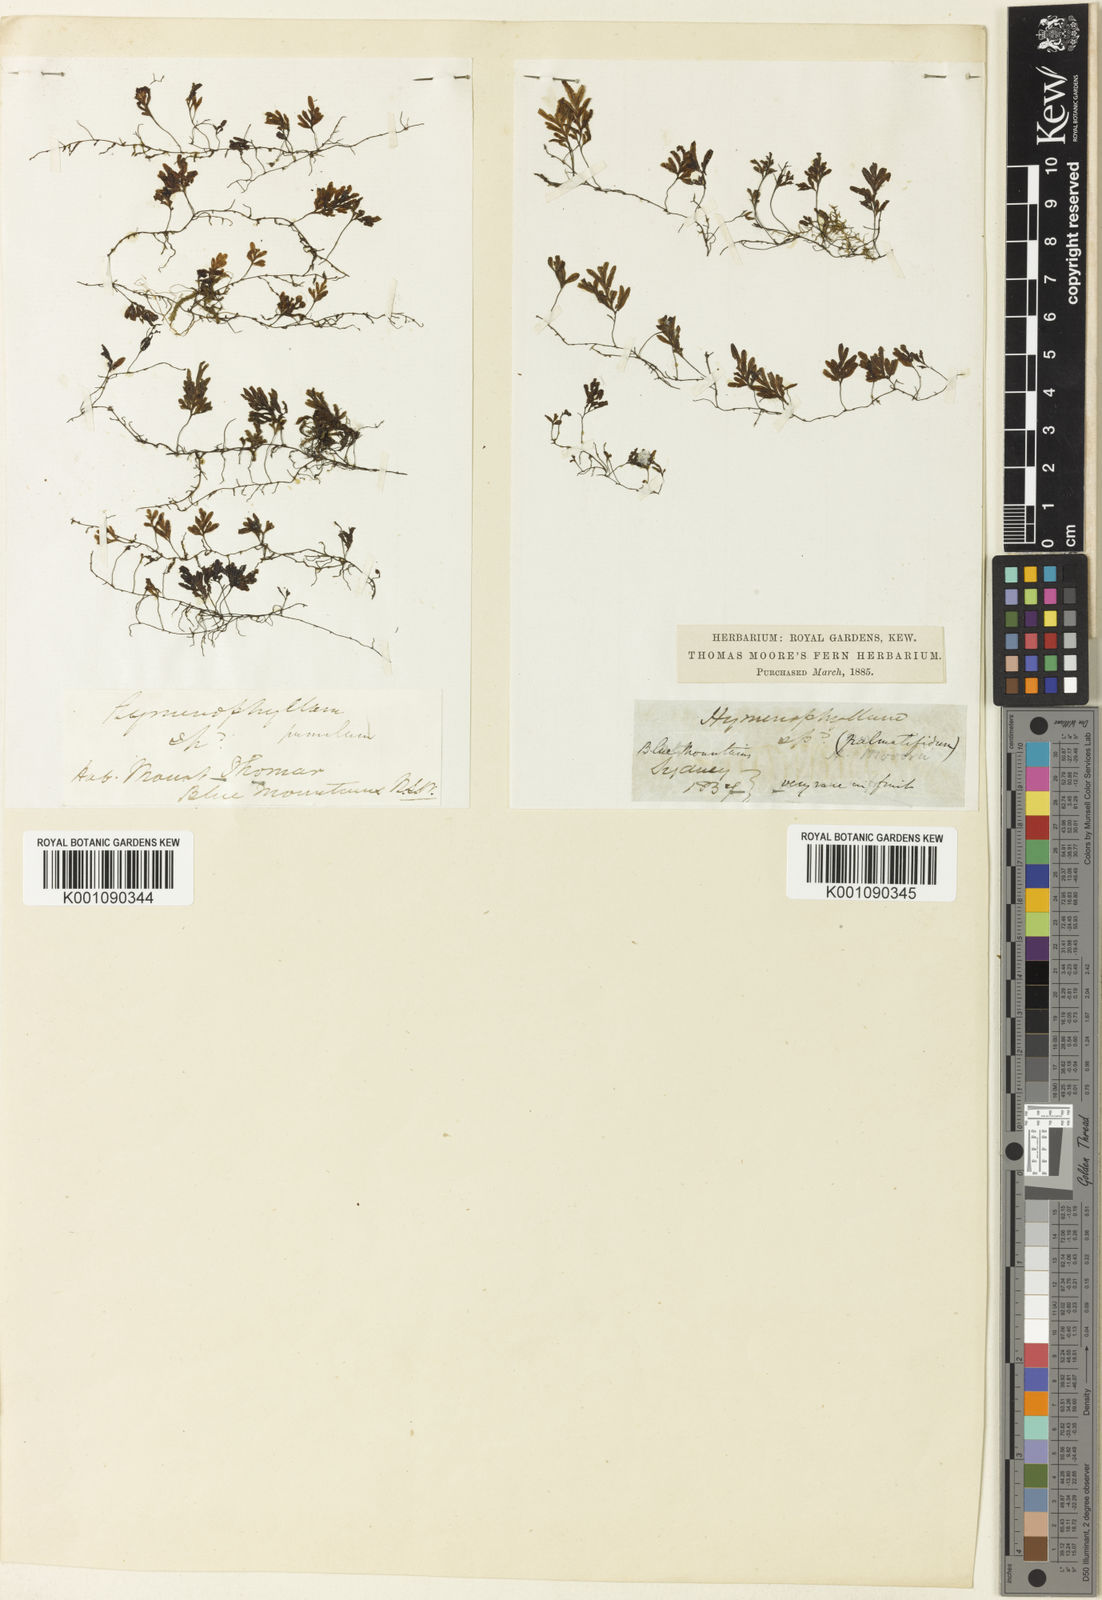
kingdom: Plantae
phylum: Tracheophyta
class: Polypodiopsida
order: Hymenophyllales
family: Hymenophyllaceae
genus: Hymenophyllum
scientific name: Hymenophyllum pumilum
